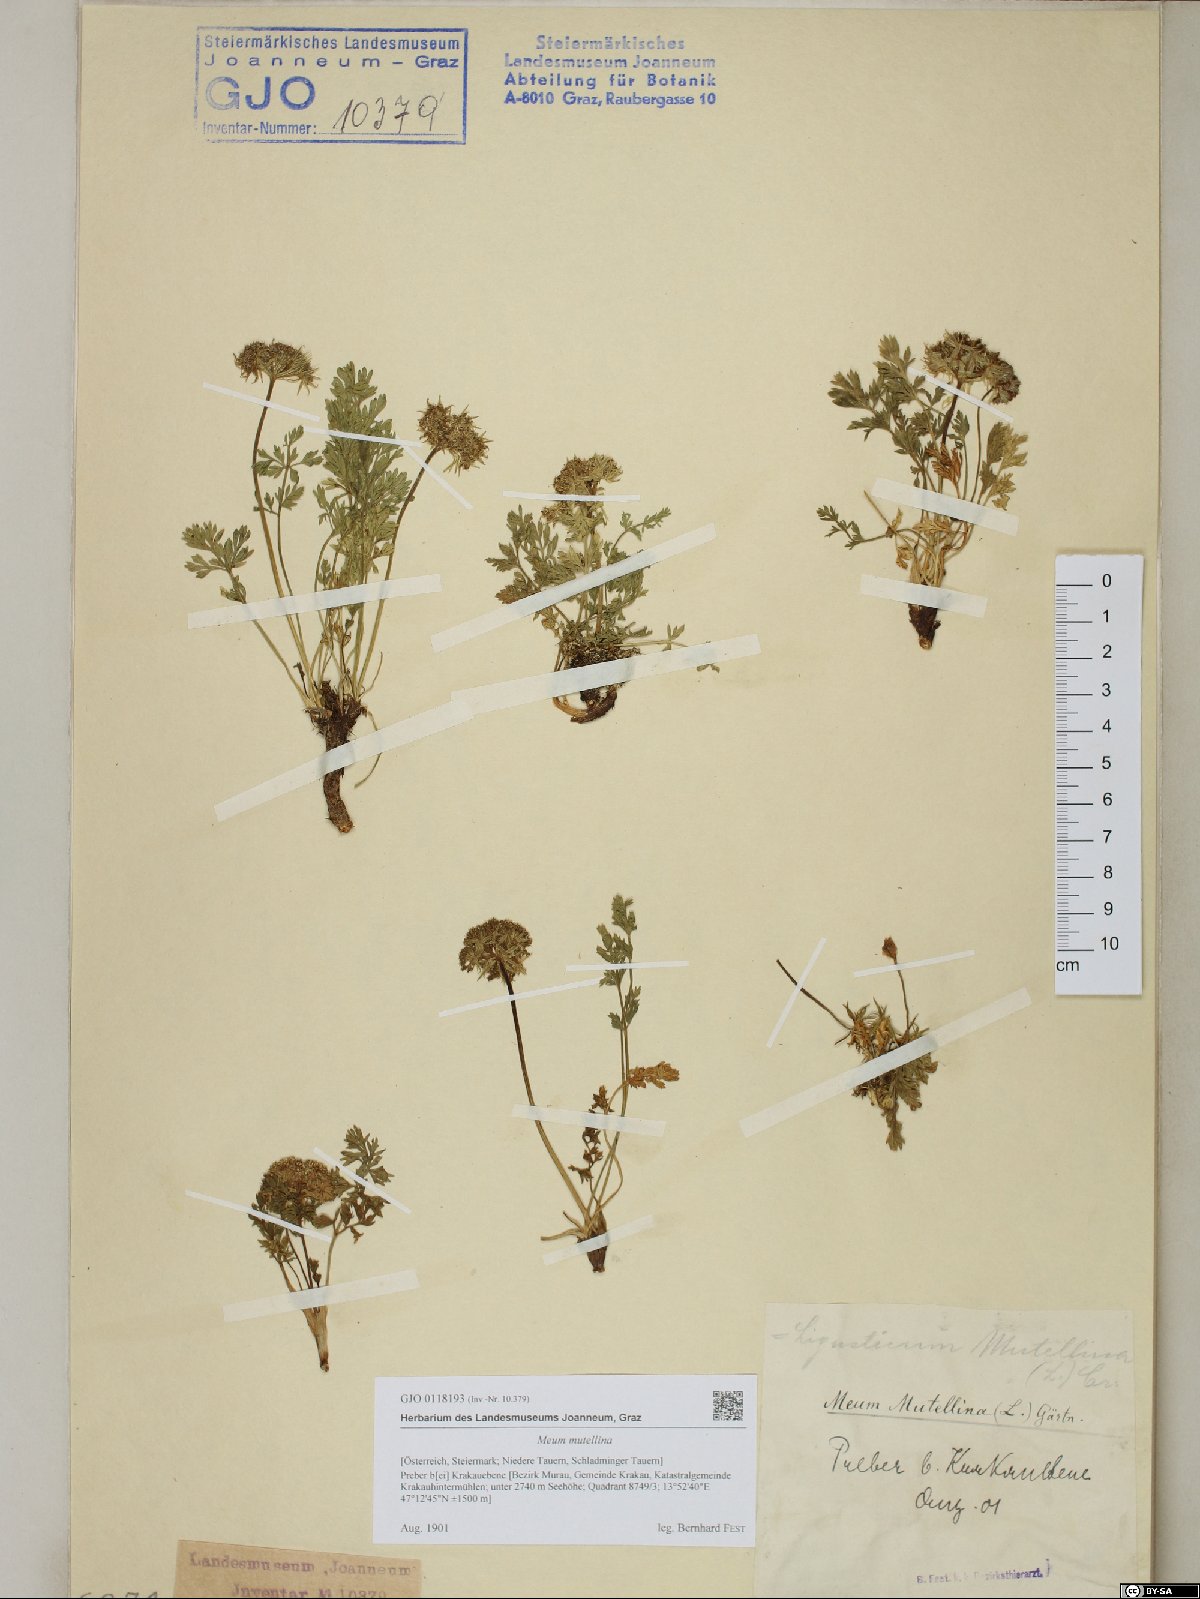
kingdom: Plantae
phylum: Tracheophyta
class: Magnoliopsida
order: Apiales
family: Apiaceae
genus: Mutellina
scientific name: Mutellina adonidifolia
